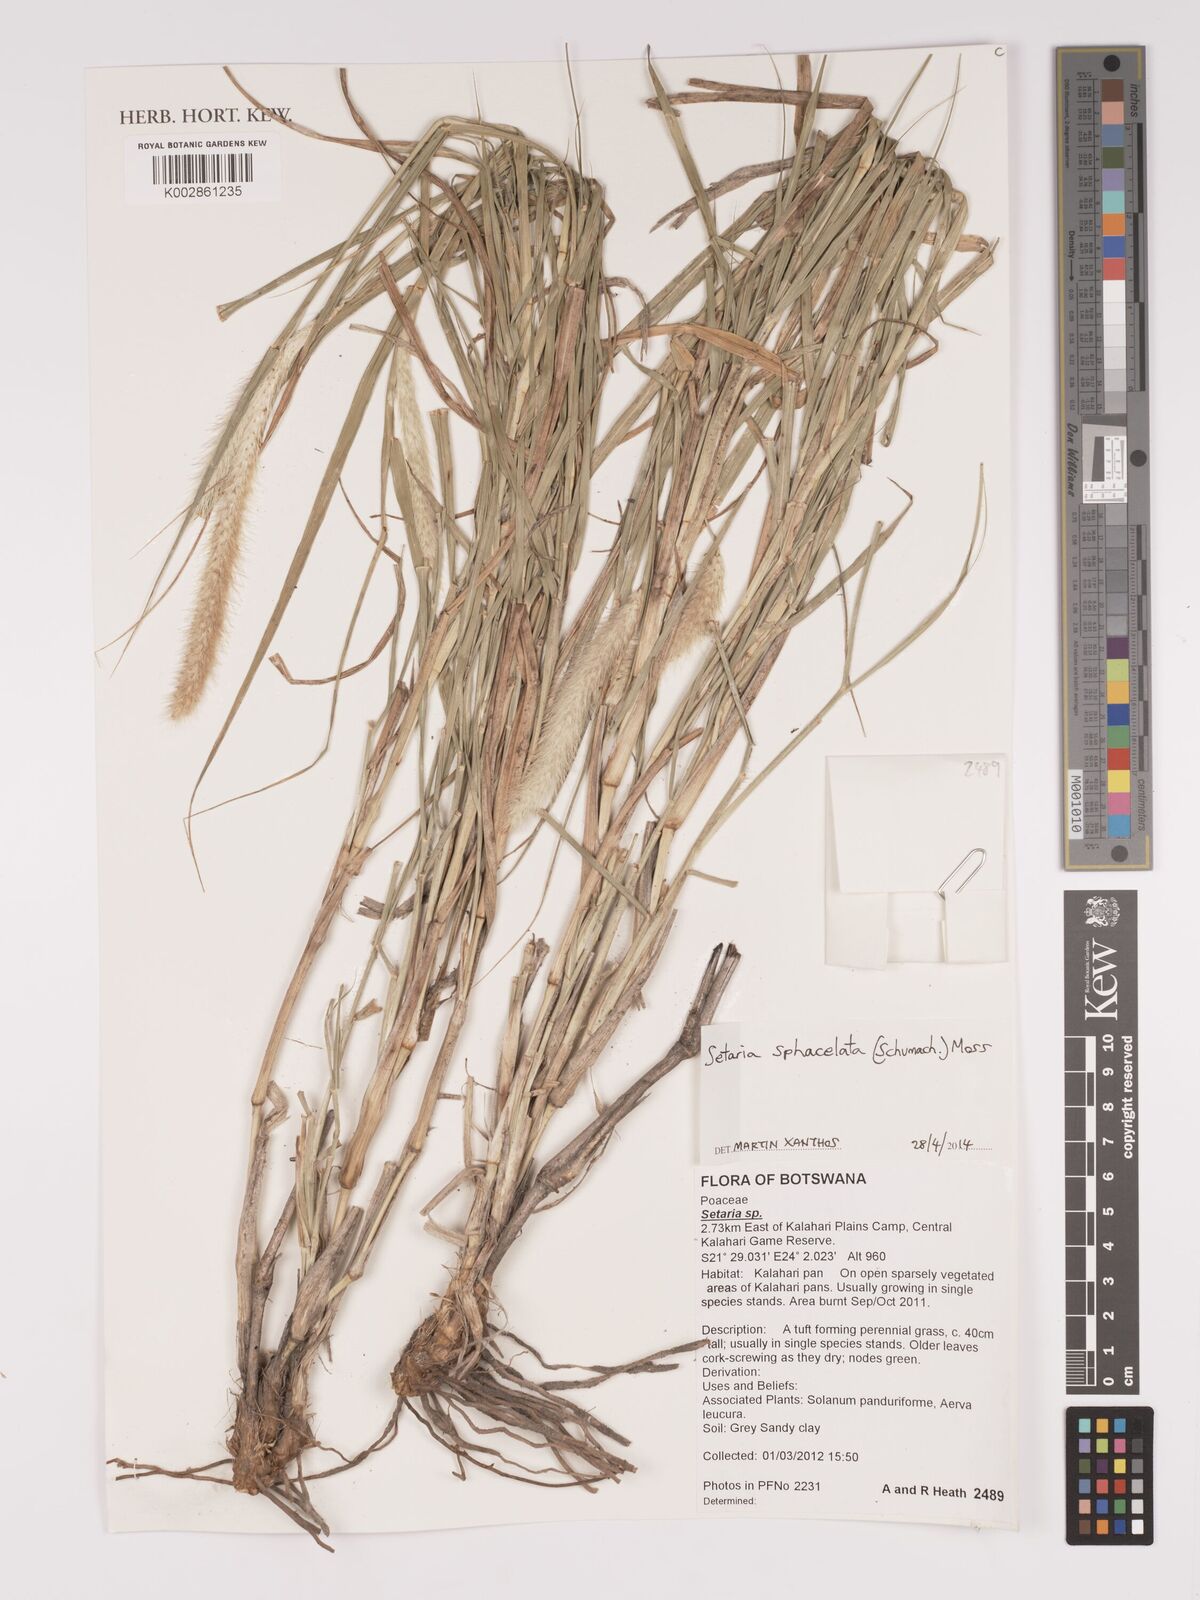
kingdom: Plantae
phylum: Tracheophyta
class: Liliopsida
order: Poales
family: Poaceae
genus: Setaria
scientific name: Setaria sphacelata
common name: African bristlegrass
